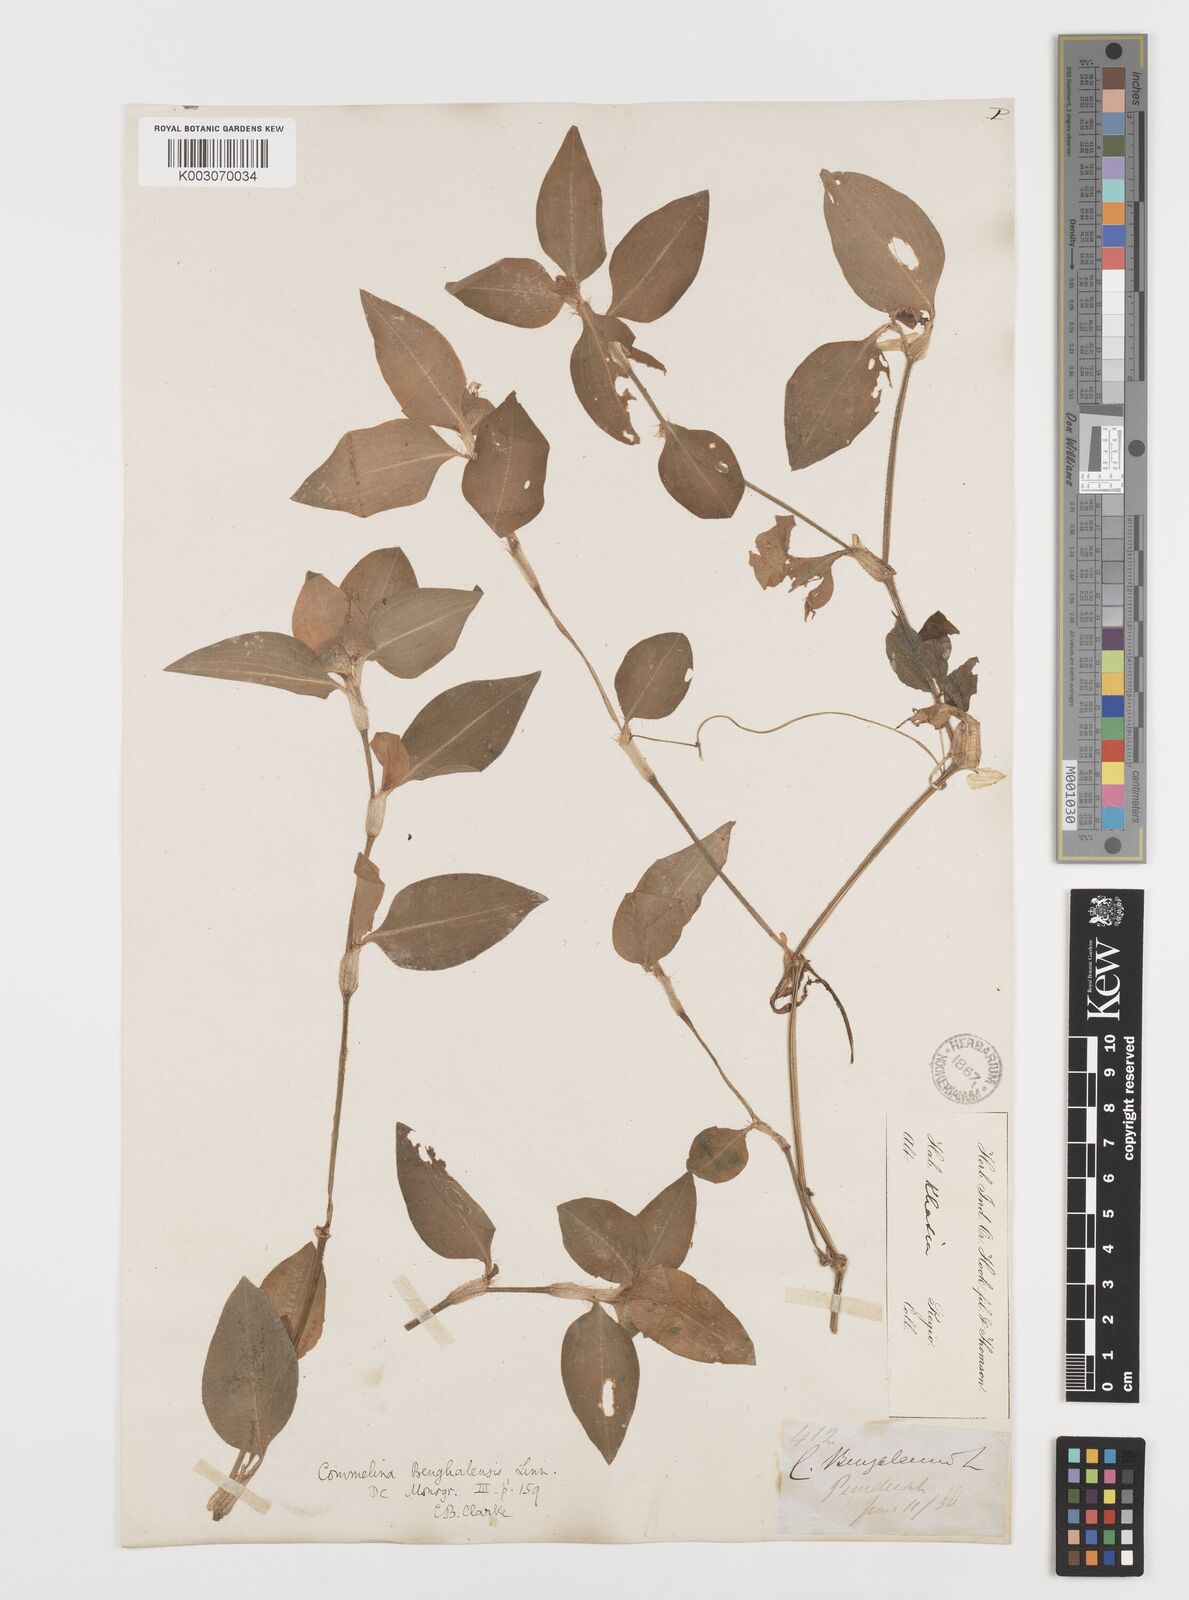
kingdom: Plantae
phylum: Tracheophyta
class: Liliopsida
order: Commelinales
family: Commelinaceae
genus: Commelina
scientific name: Commelina
